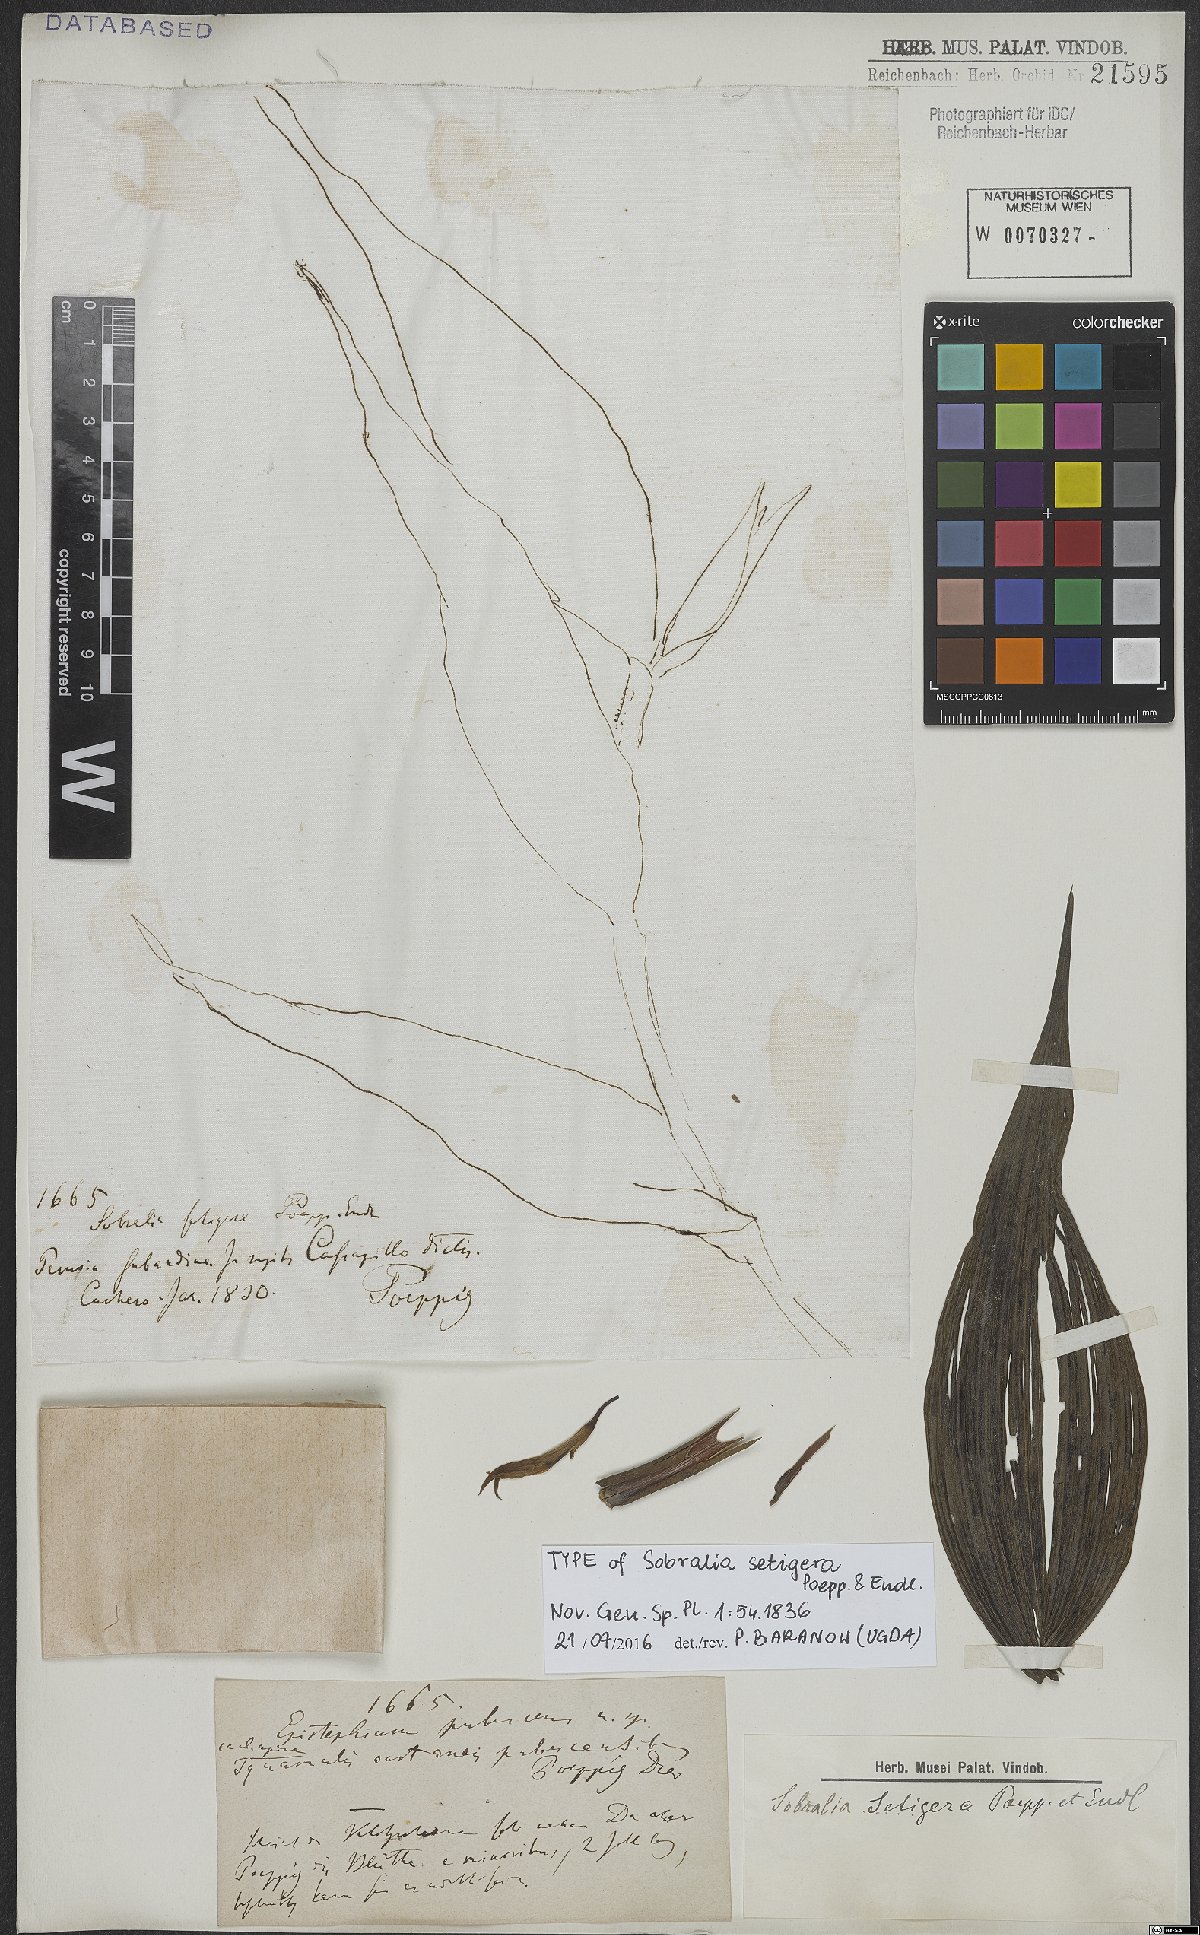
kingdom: Plantae
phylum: Tracheophyta
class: Liliopsida
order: Asparagales
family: Orchidaceae
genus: Sobralia
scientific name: Sobralia setigera
